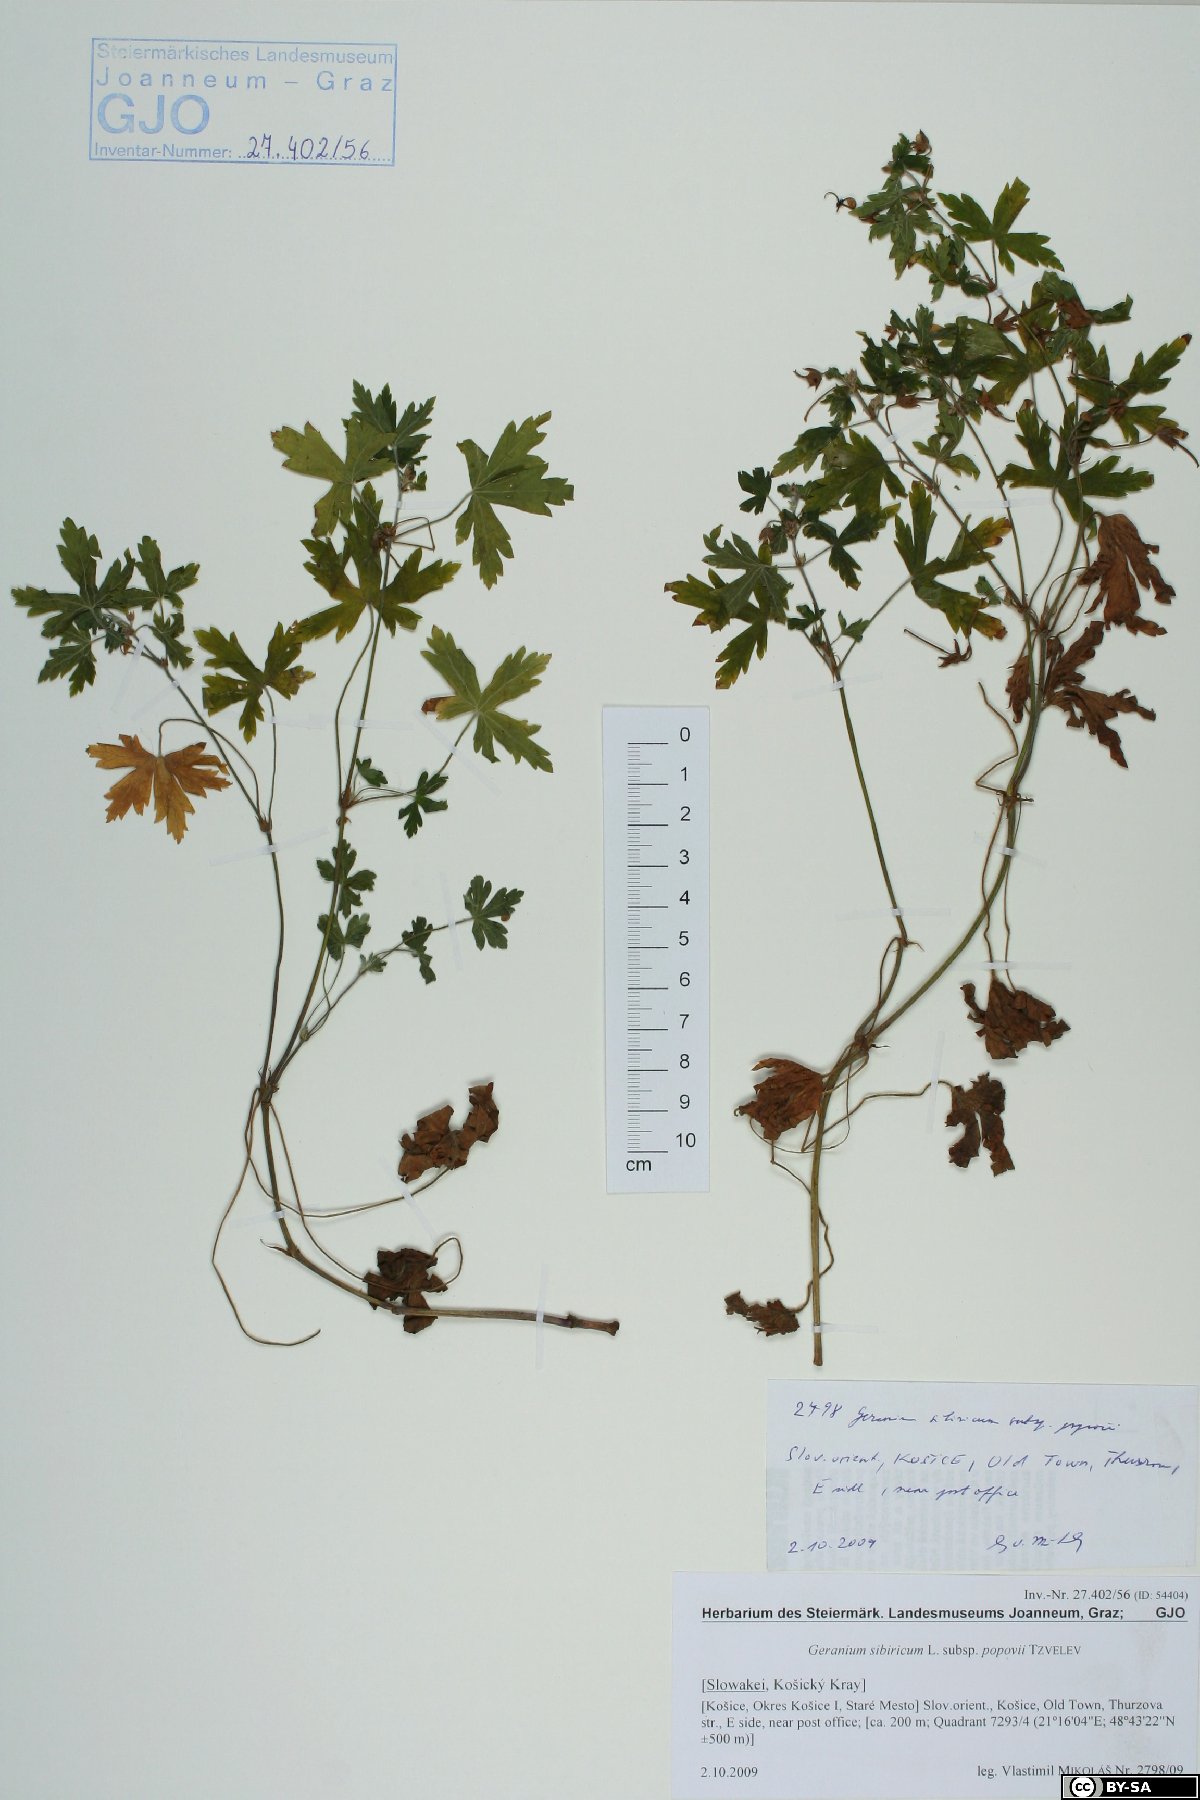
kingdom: Plantae
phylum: Tracheophyta
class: Magnoliopsida
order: Geraniales
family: Geraniaceae
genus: Geranium
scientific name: Geranium sibiricum
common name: Siberian crane's-bill
